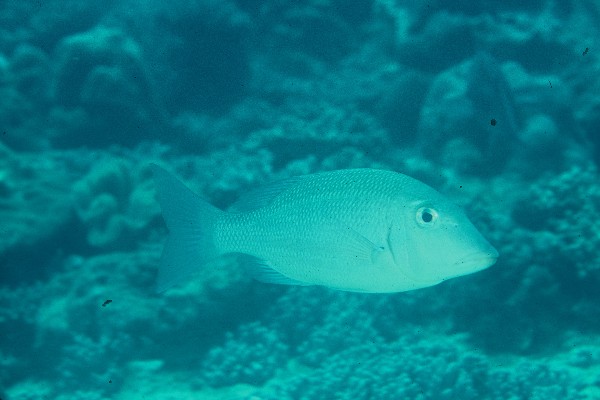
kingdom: Animalia
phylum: Chordata
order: Perciformes
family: Lethrinidae
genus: Lethrinus
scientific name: Lethrinus obsoletus
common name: Orange-striped emperor
